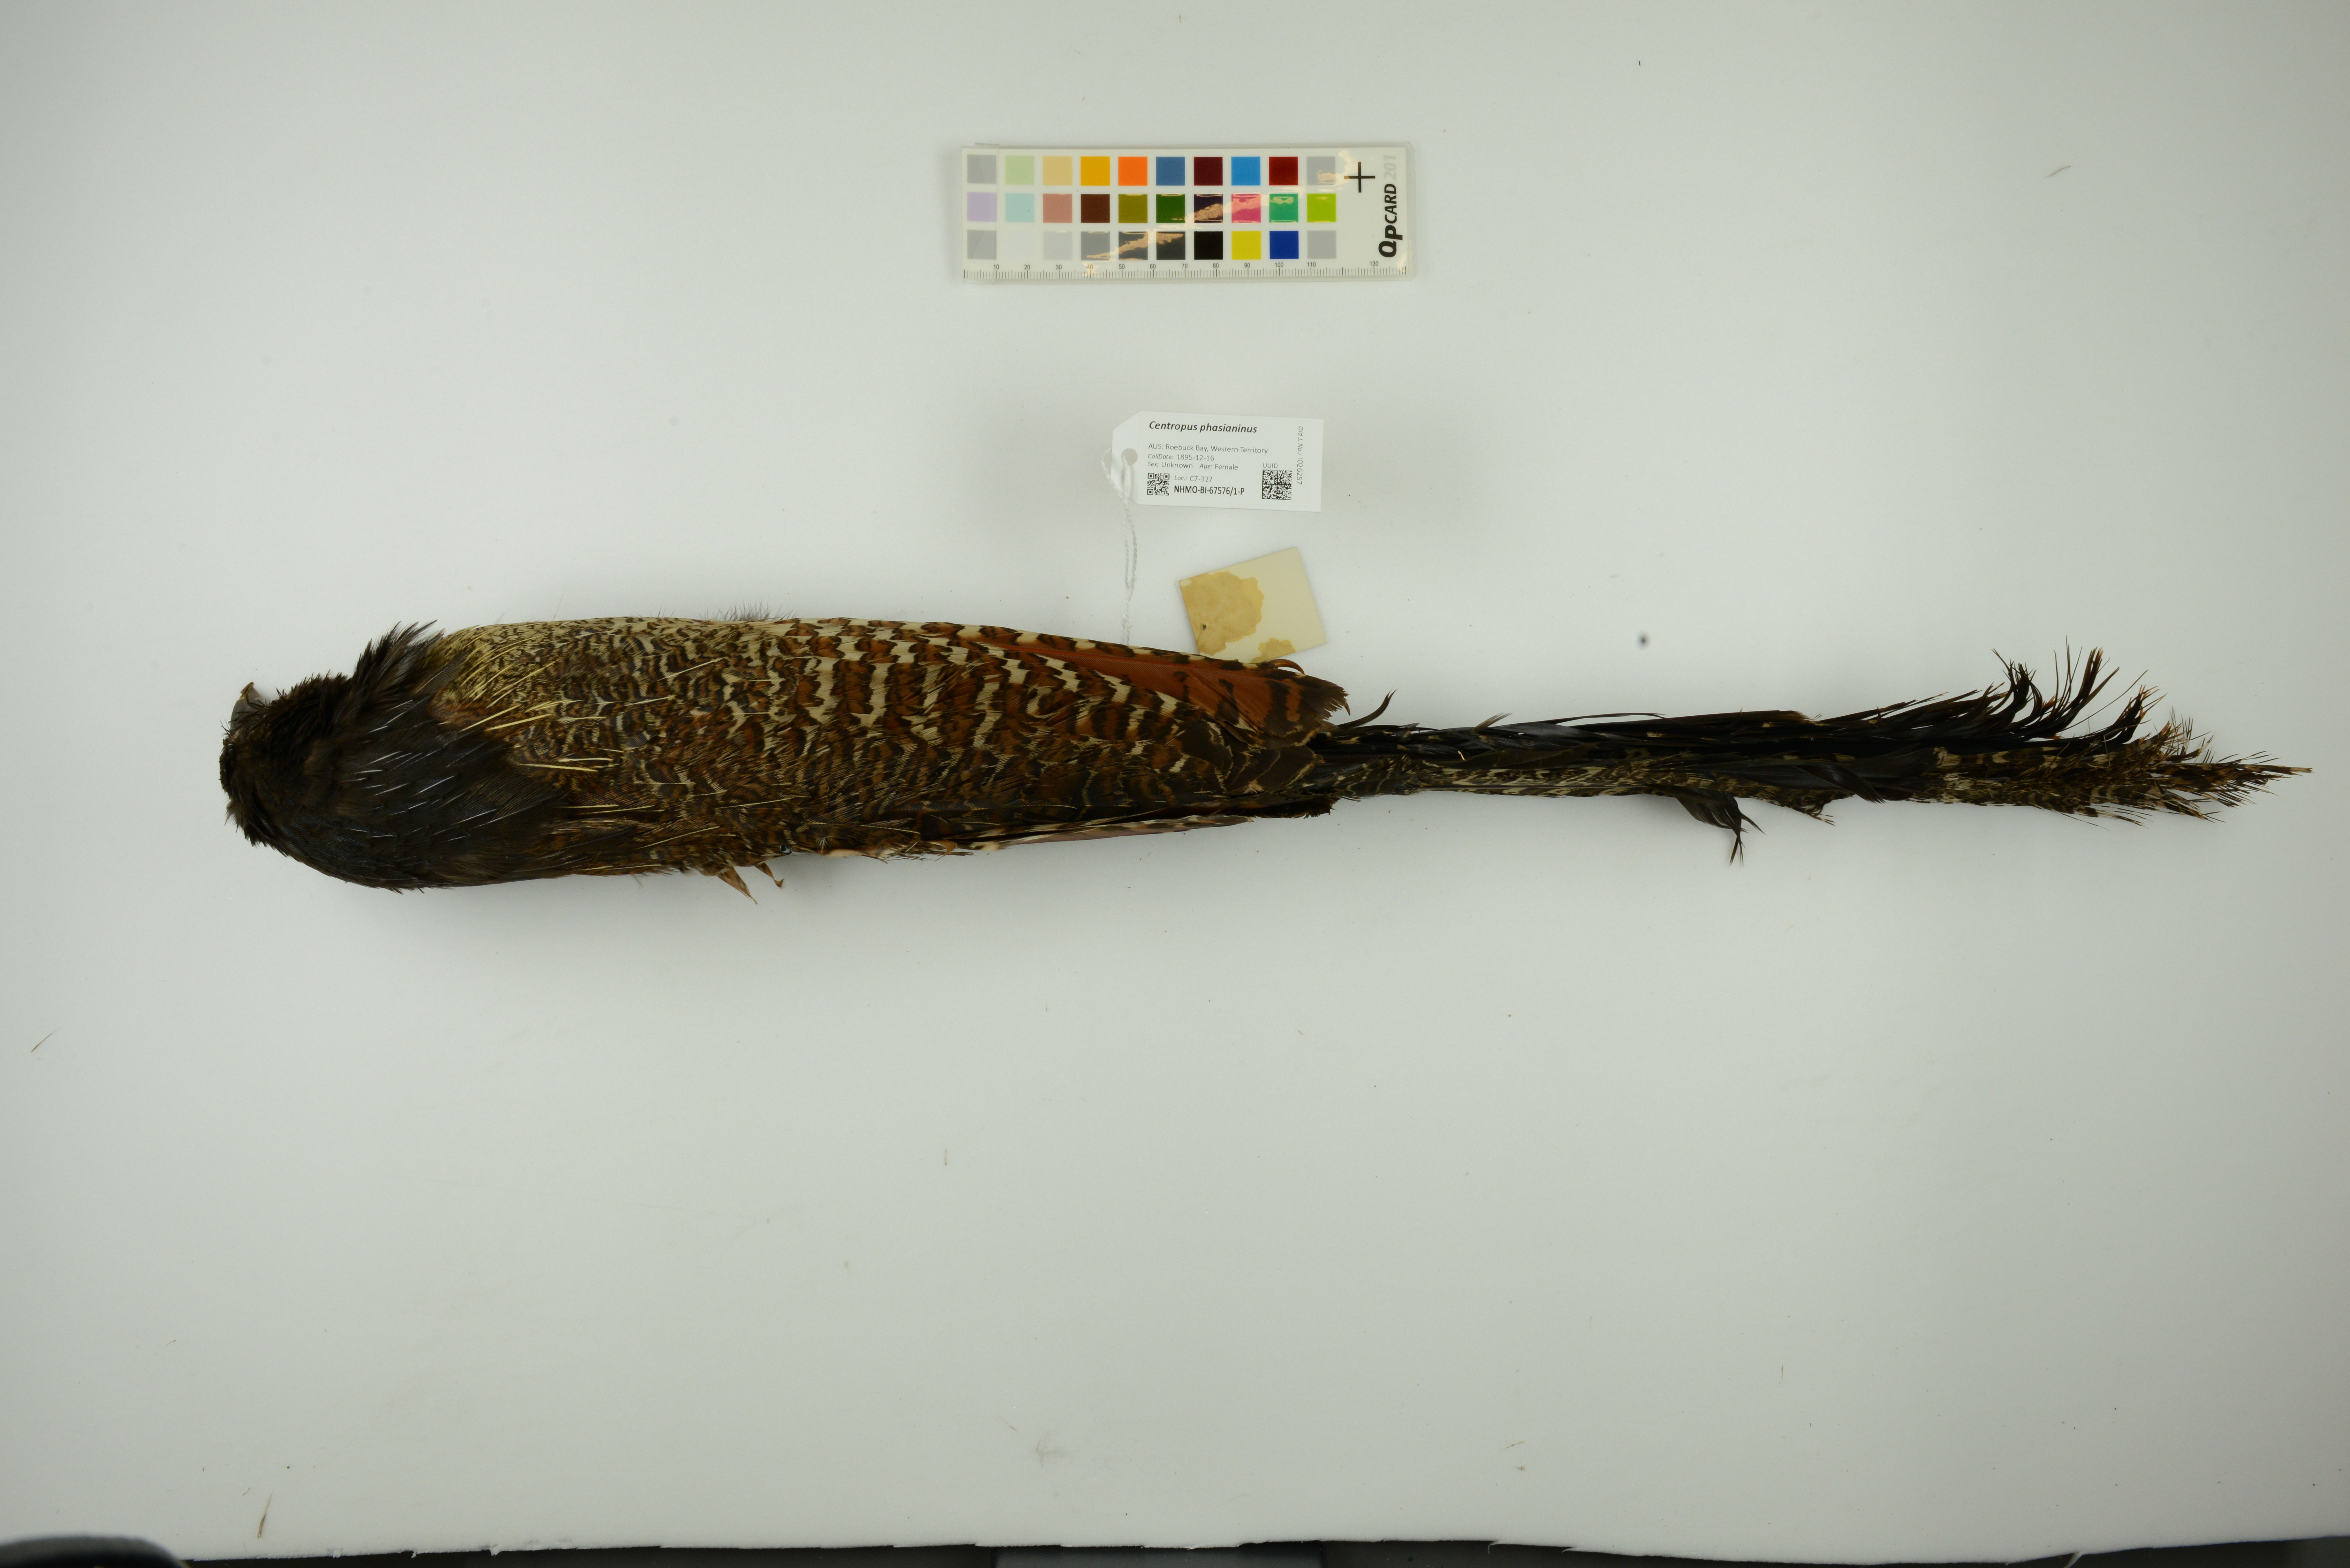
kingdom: Animalia
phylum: Chordata
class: Aves
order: Cuculiformes
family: Cuculidae
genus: Centropus
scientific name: Centropus phasianinus
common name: Pheasant coucal
